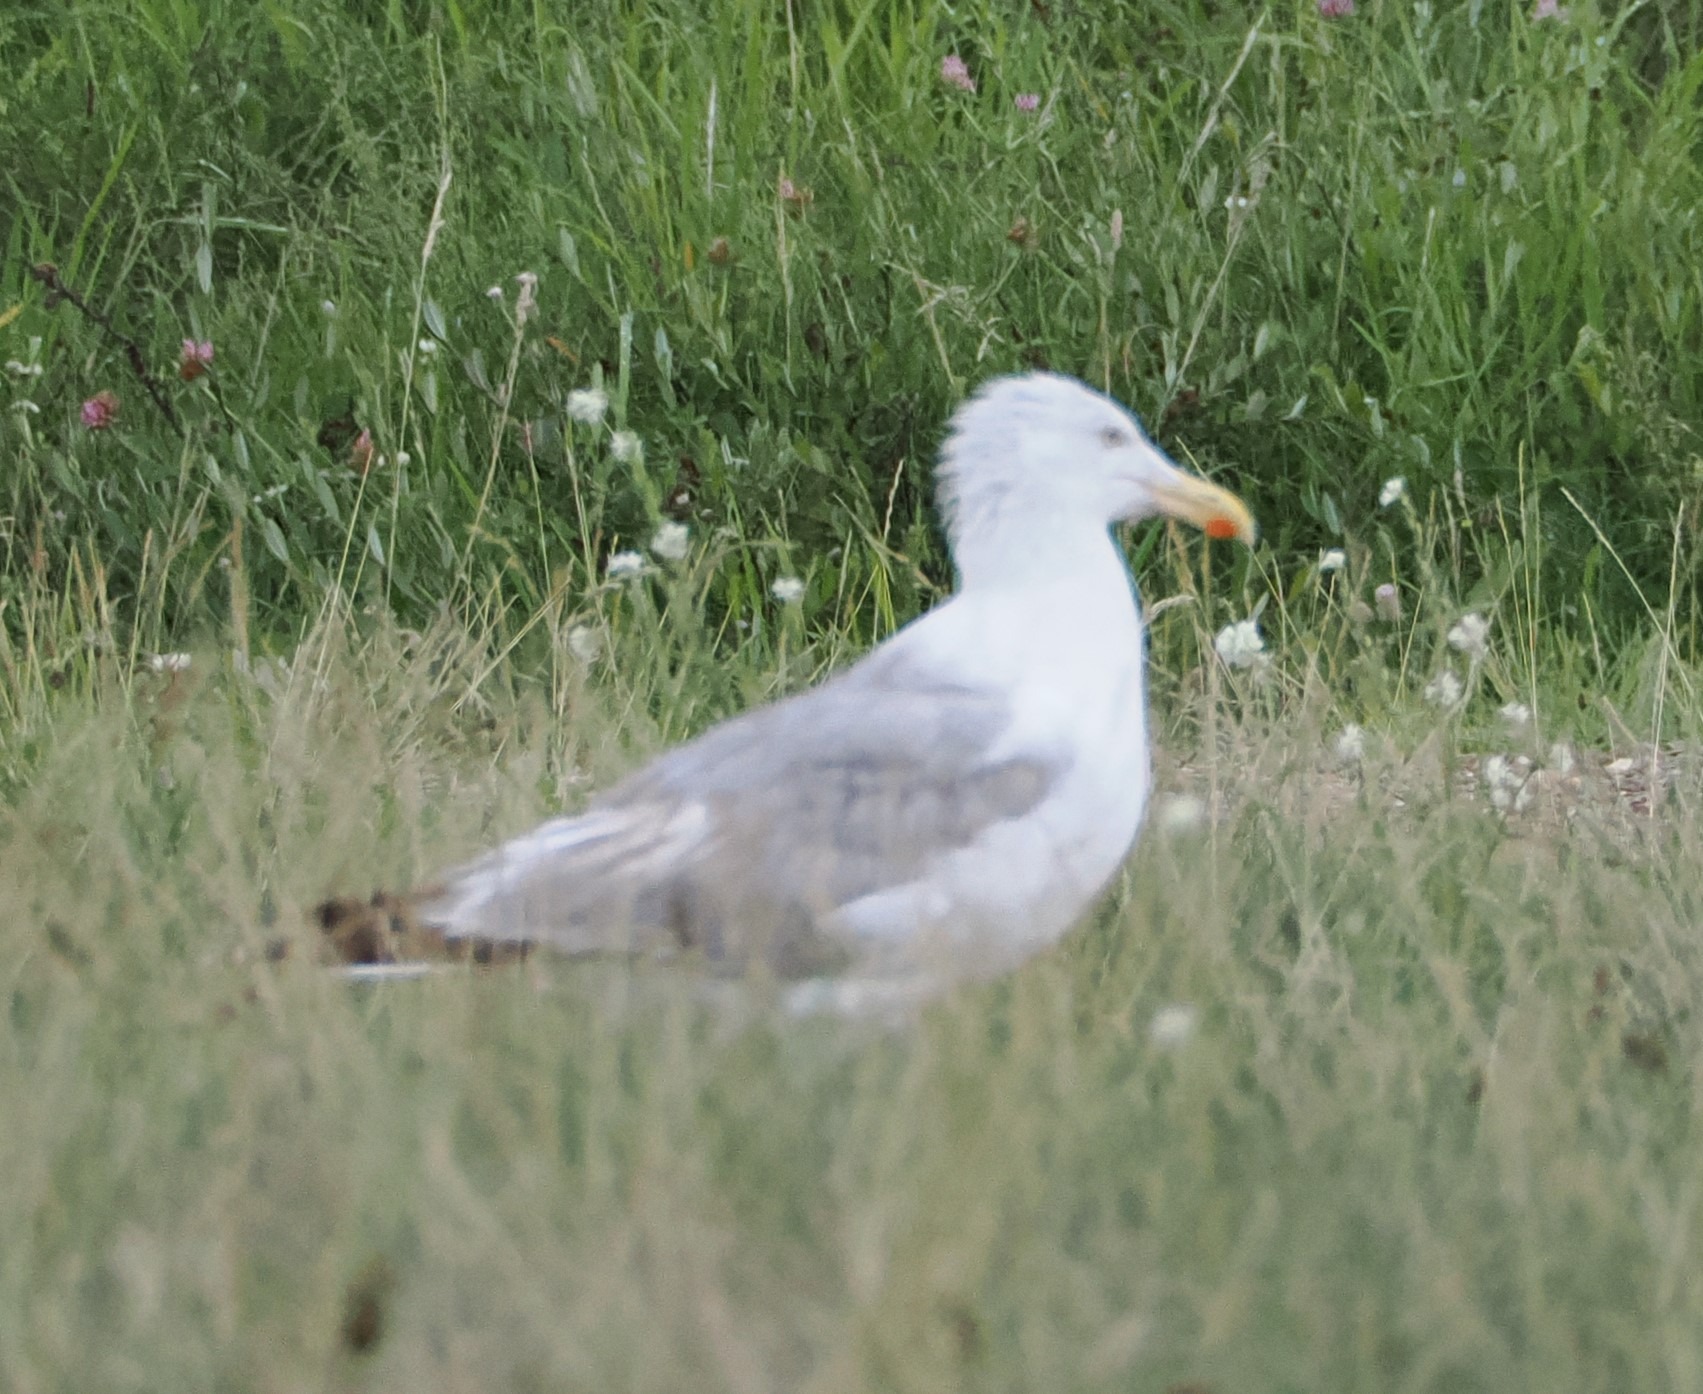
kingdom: Animalia
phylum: Chordata
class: Aves
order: Charadriiformes
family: Laridae
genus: Larus
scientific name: Larus argentatus
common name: Sølvmåge
